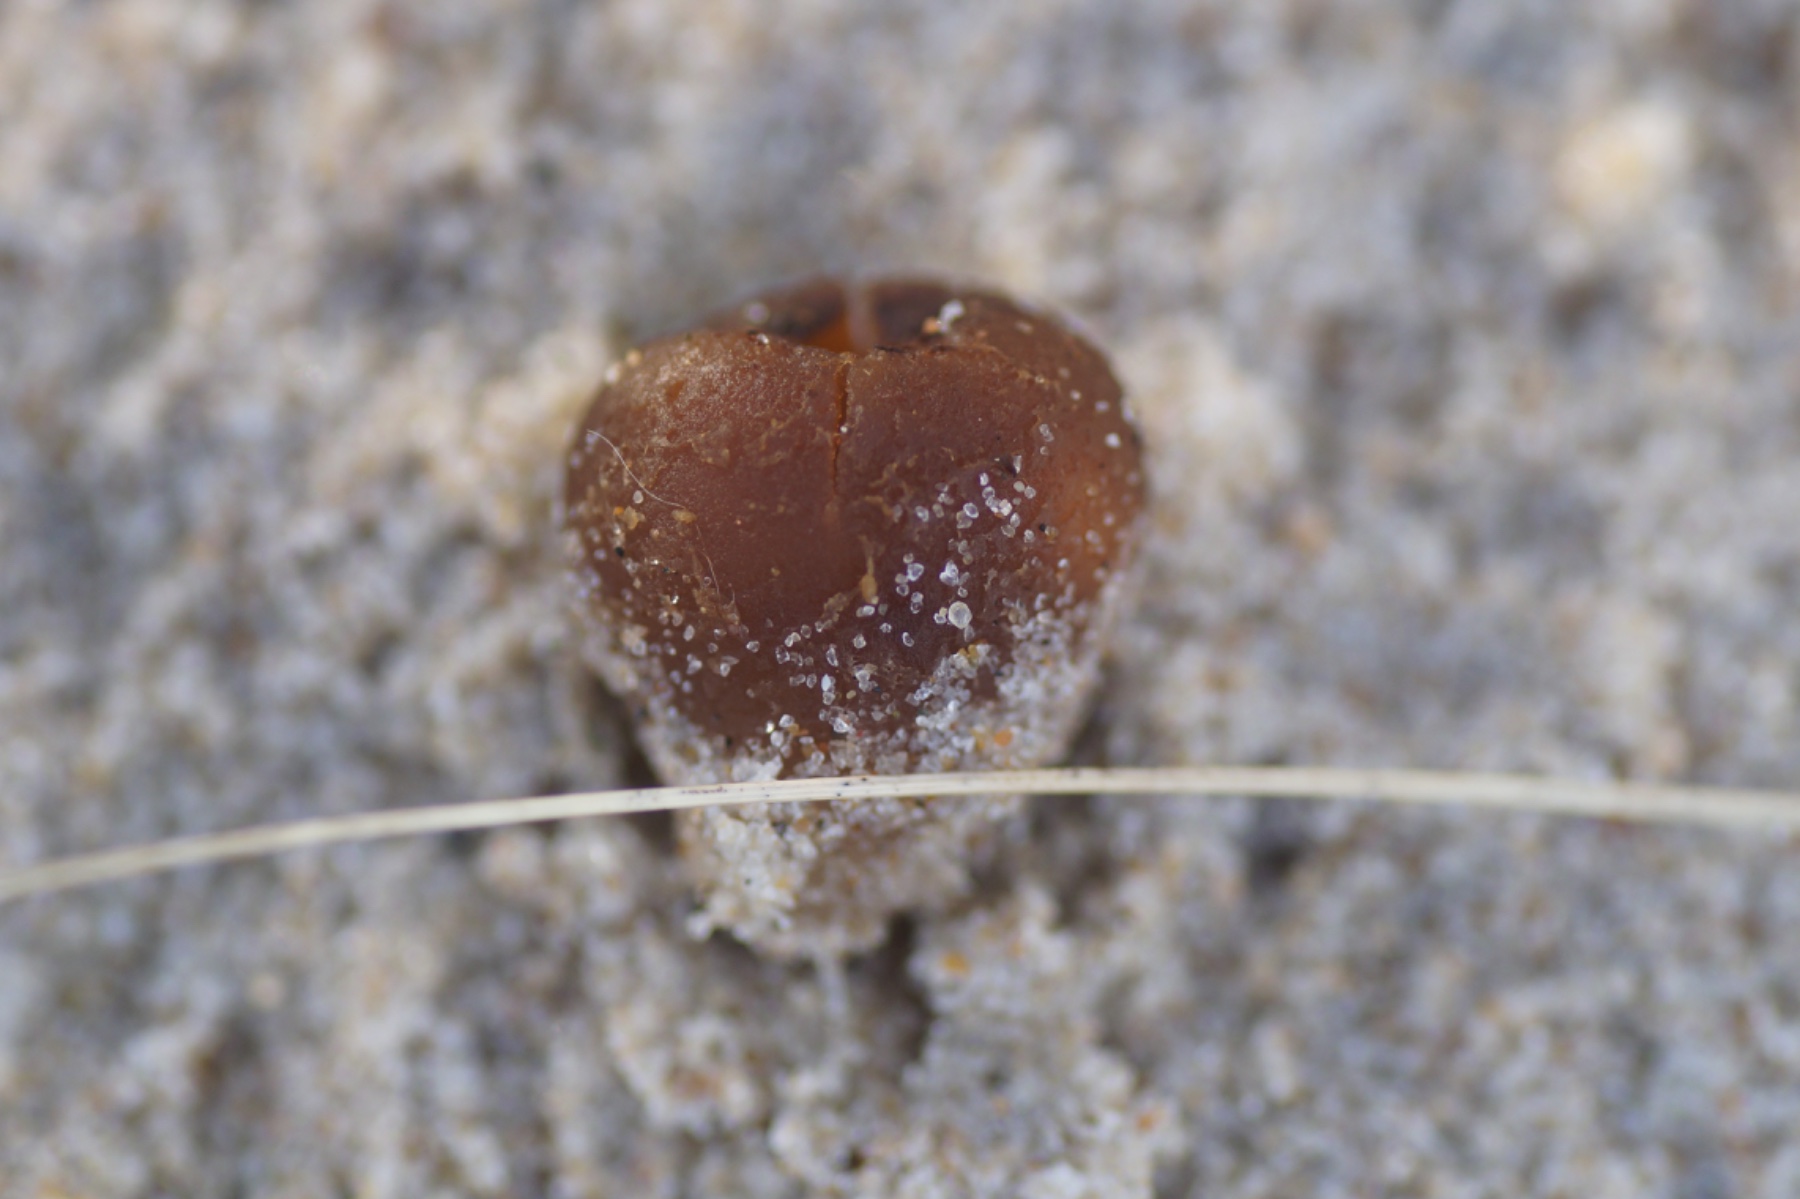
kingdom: Fungi
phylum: Ascomycota
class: Pezizomycetes
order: Pezizales
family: Pyronemataceae
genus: Lamprospora
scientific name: Lamprospora ammophila
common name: klit-bægersvamp
